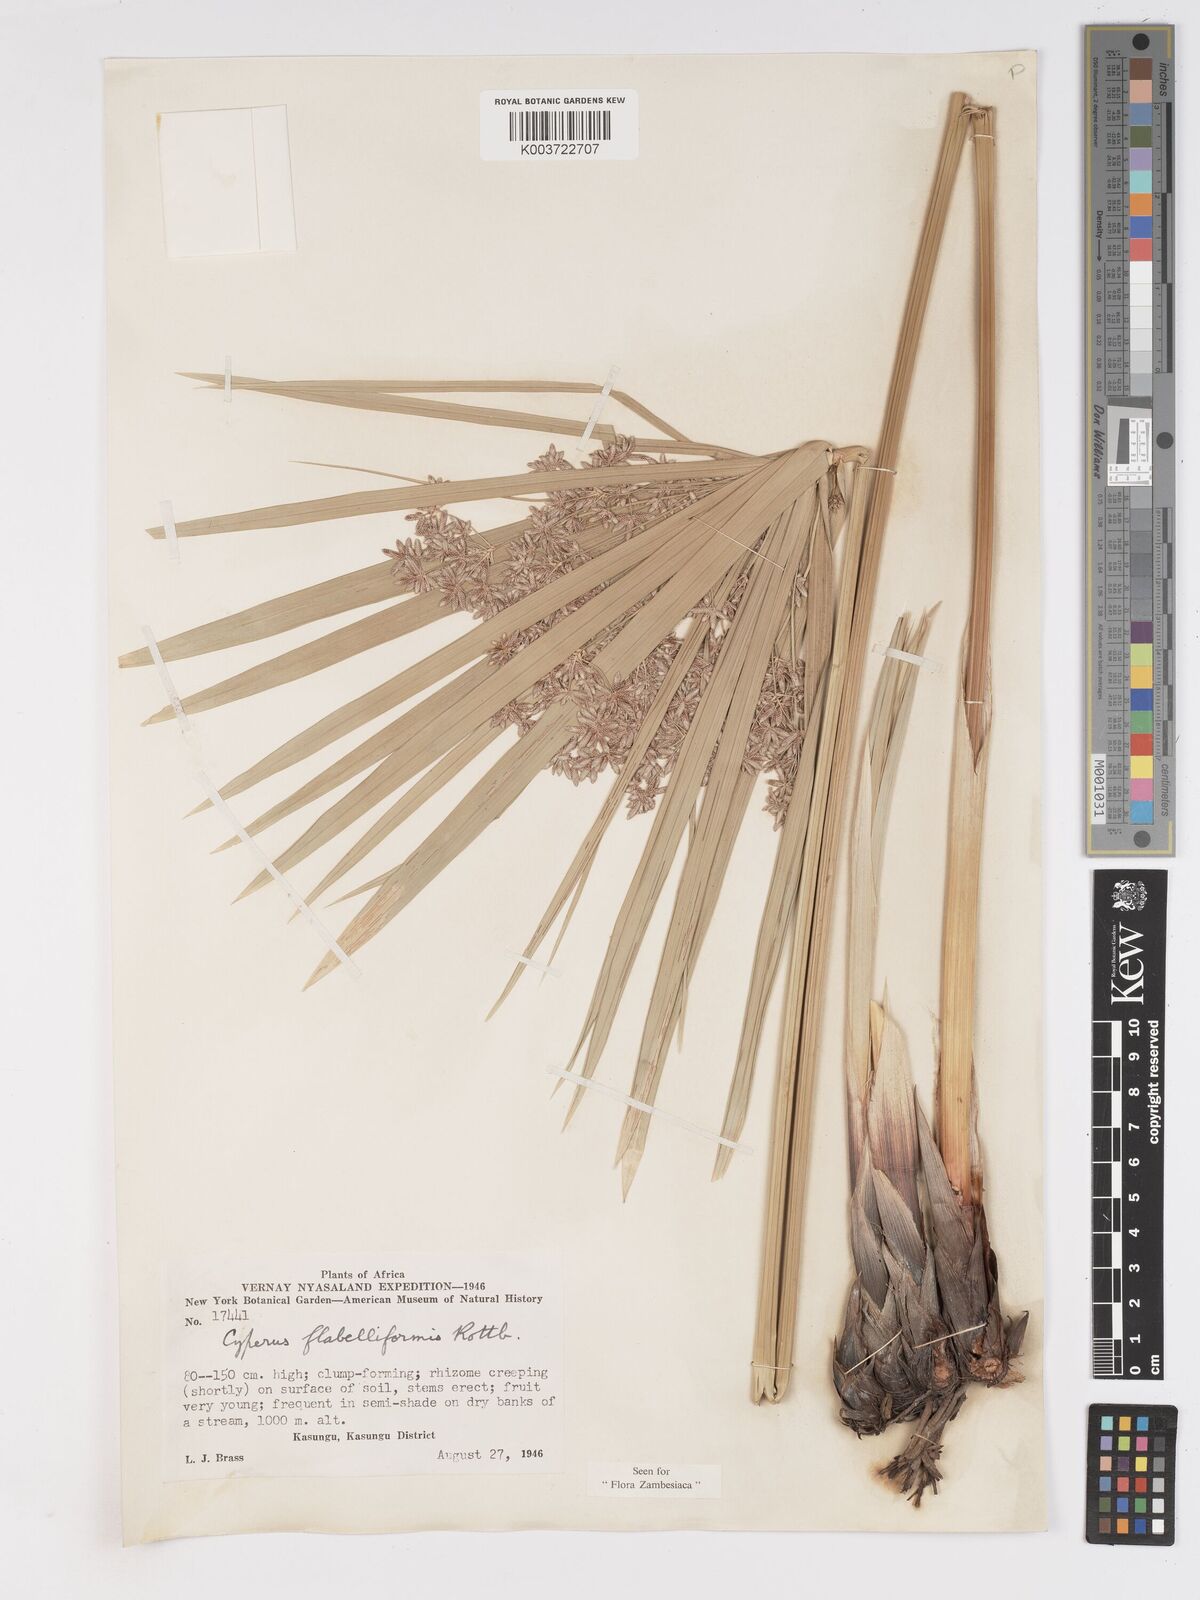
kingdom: Plantae
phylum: Tracheophyta
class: Liliopsida
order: Poales
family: Cyperaceae
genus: Cyperus
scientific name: Cyperus alternifolius
